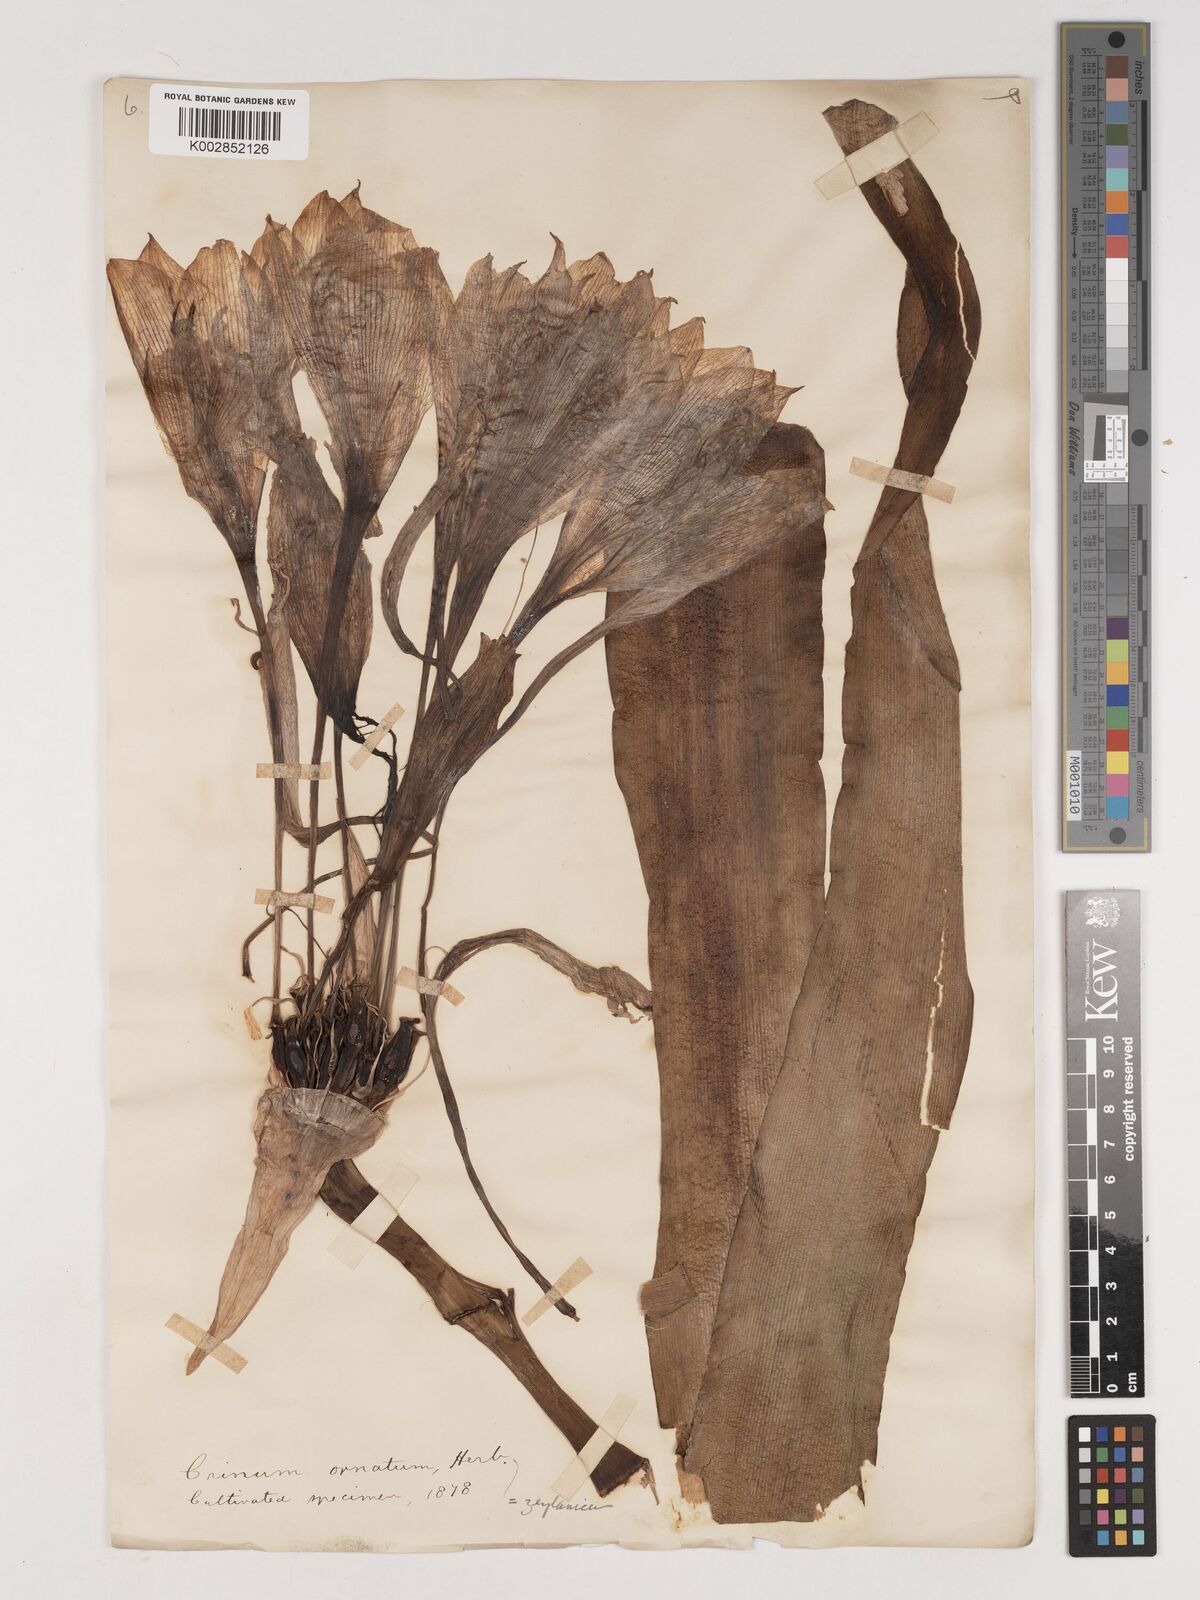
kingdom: Plantae
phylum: Tracheophyta
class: Liliopsida
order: Asparagales
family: Amaryllidaceae
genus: Crinum
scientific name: Crinum latifolium
